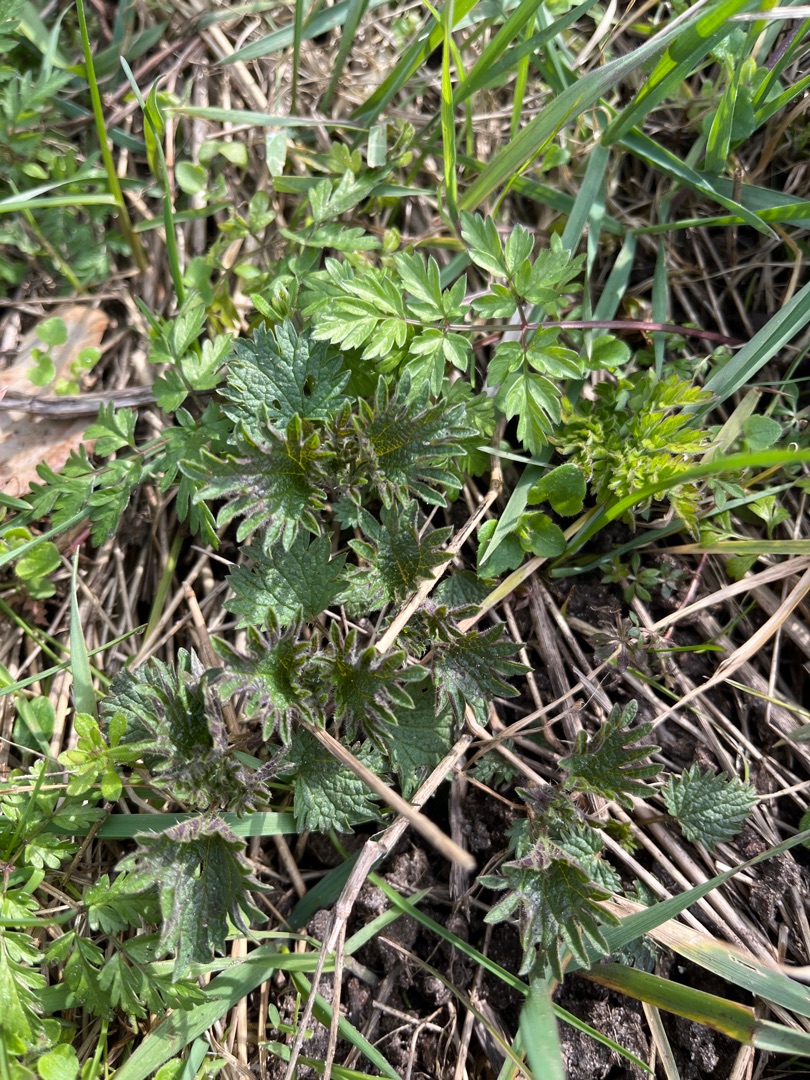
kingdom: Plantae
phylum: Tracheophyta
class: Magnoliopsida
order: Rosales
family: Urticaceae
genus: Urtica
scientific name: Urtica dioica
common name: Stor nælde
